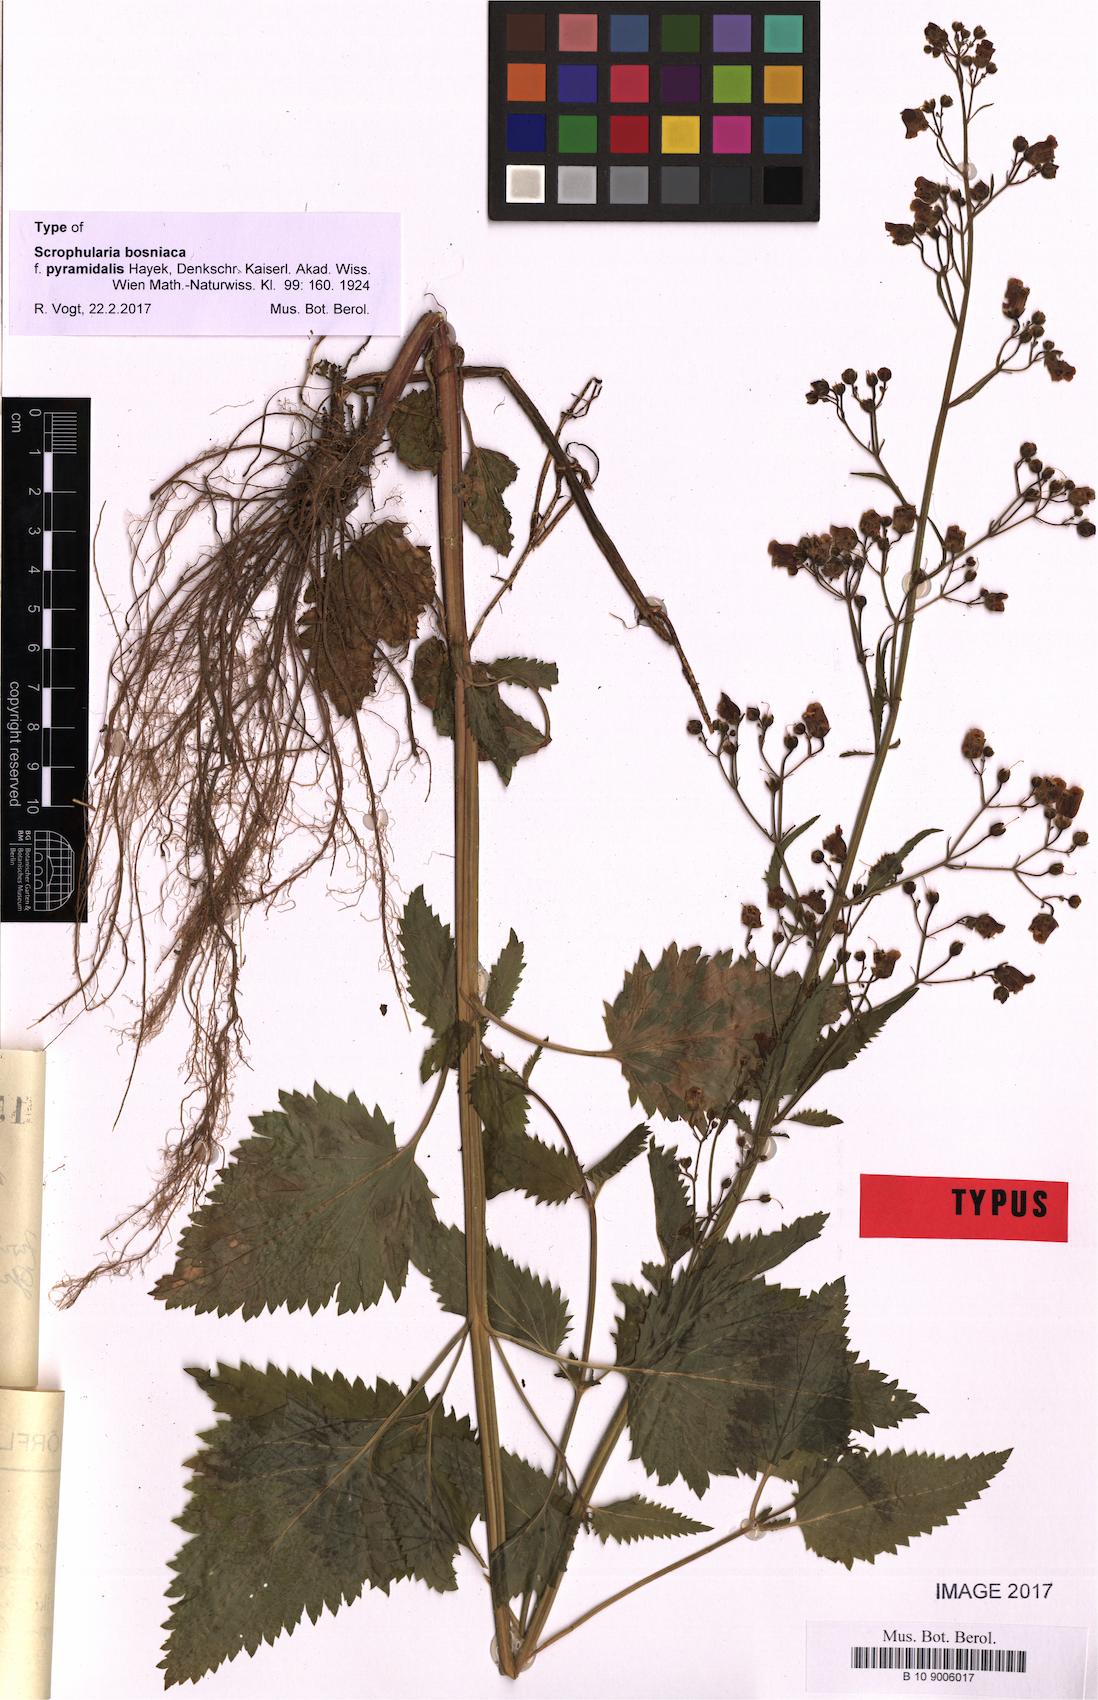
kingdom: Plantae
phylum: Tracheophyta
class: Magnoliopsida
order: Lamiales
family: Scrophulariaceae
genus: Scrophularia
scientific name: Scrophularia bosniaca
